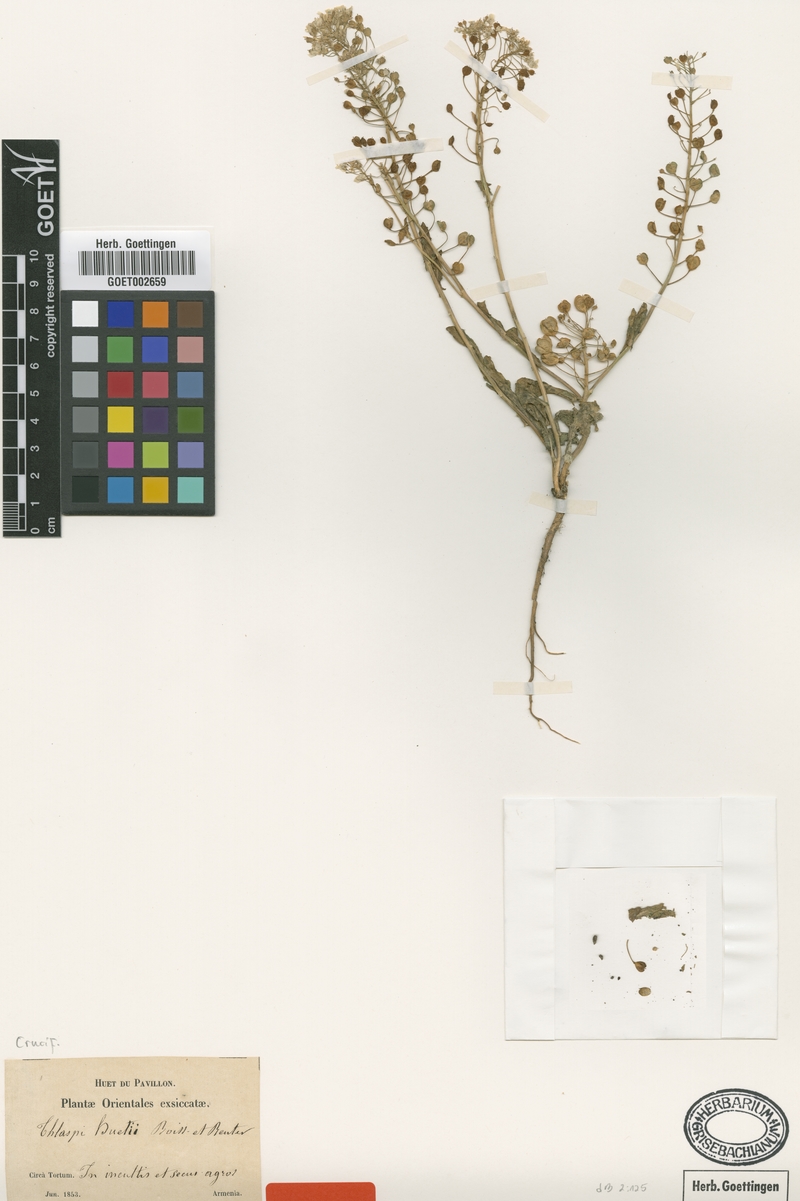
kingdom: Plantae
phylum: Tracheophyta
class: Magnoliopsida
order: Brassicales
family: Brassicaceae
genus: Thlaspi
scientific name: Thlaspi huetii
